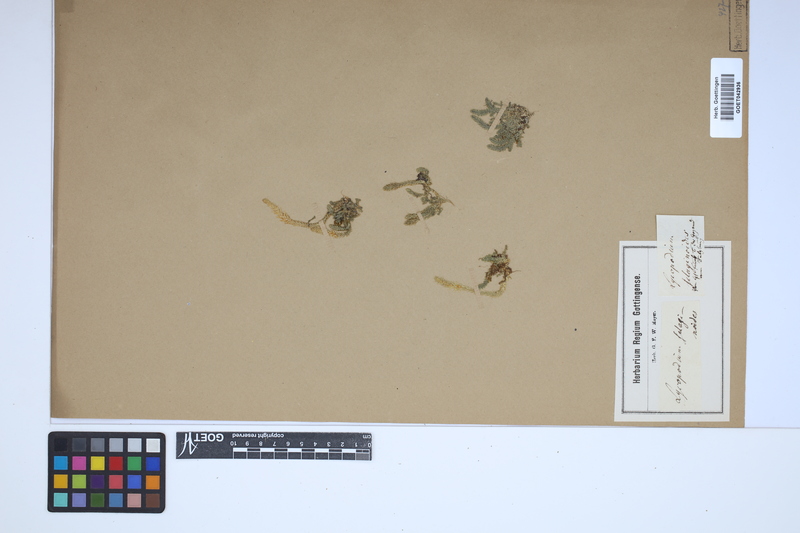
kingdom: Plantae
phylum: Tracheophyta
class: Lycopodiopsida
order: Selaginellales
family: Selaginellaceae
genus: Selaginella
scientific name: Selaginella selaginoides
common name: Prickly mountain-moss
